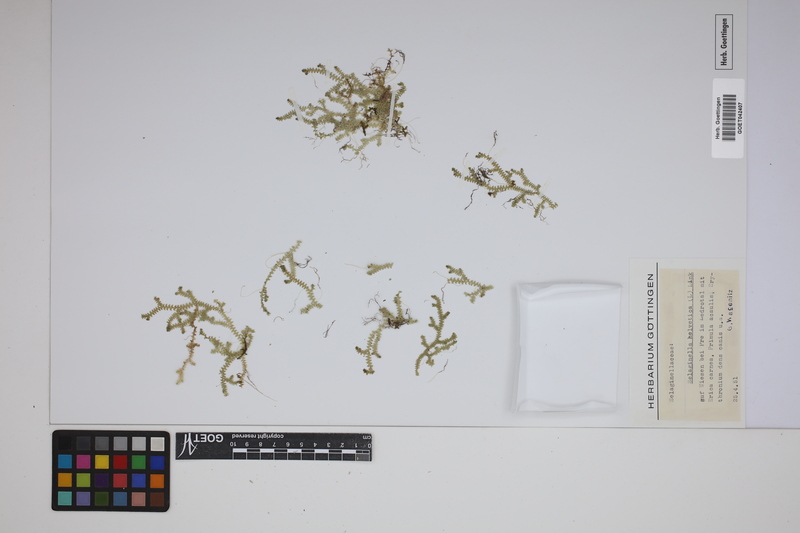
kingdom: Plantae
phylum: Tracheophyta
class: Lycopodiopsida
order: Selaginellales
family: Selaginellaceae
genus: Selaginella
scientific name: Selaginella helvetica
